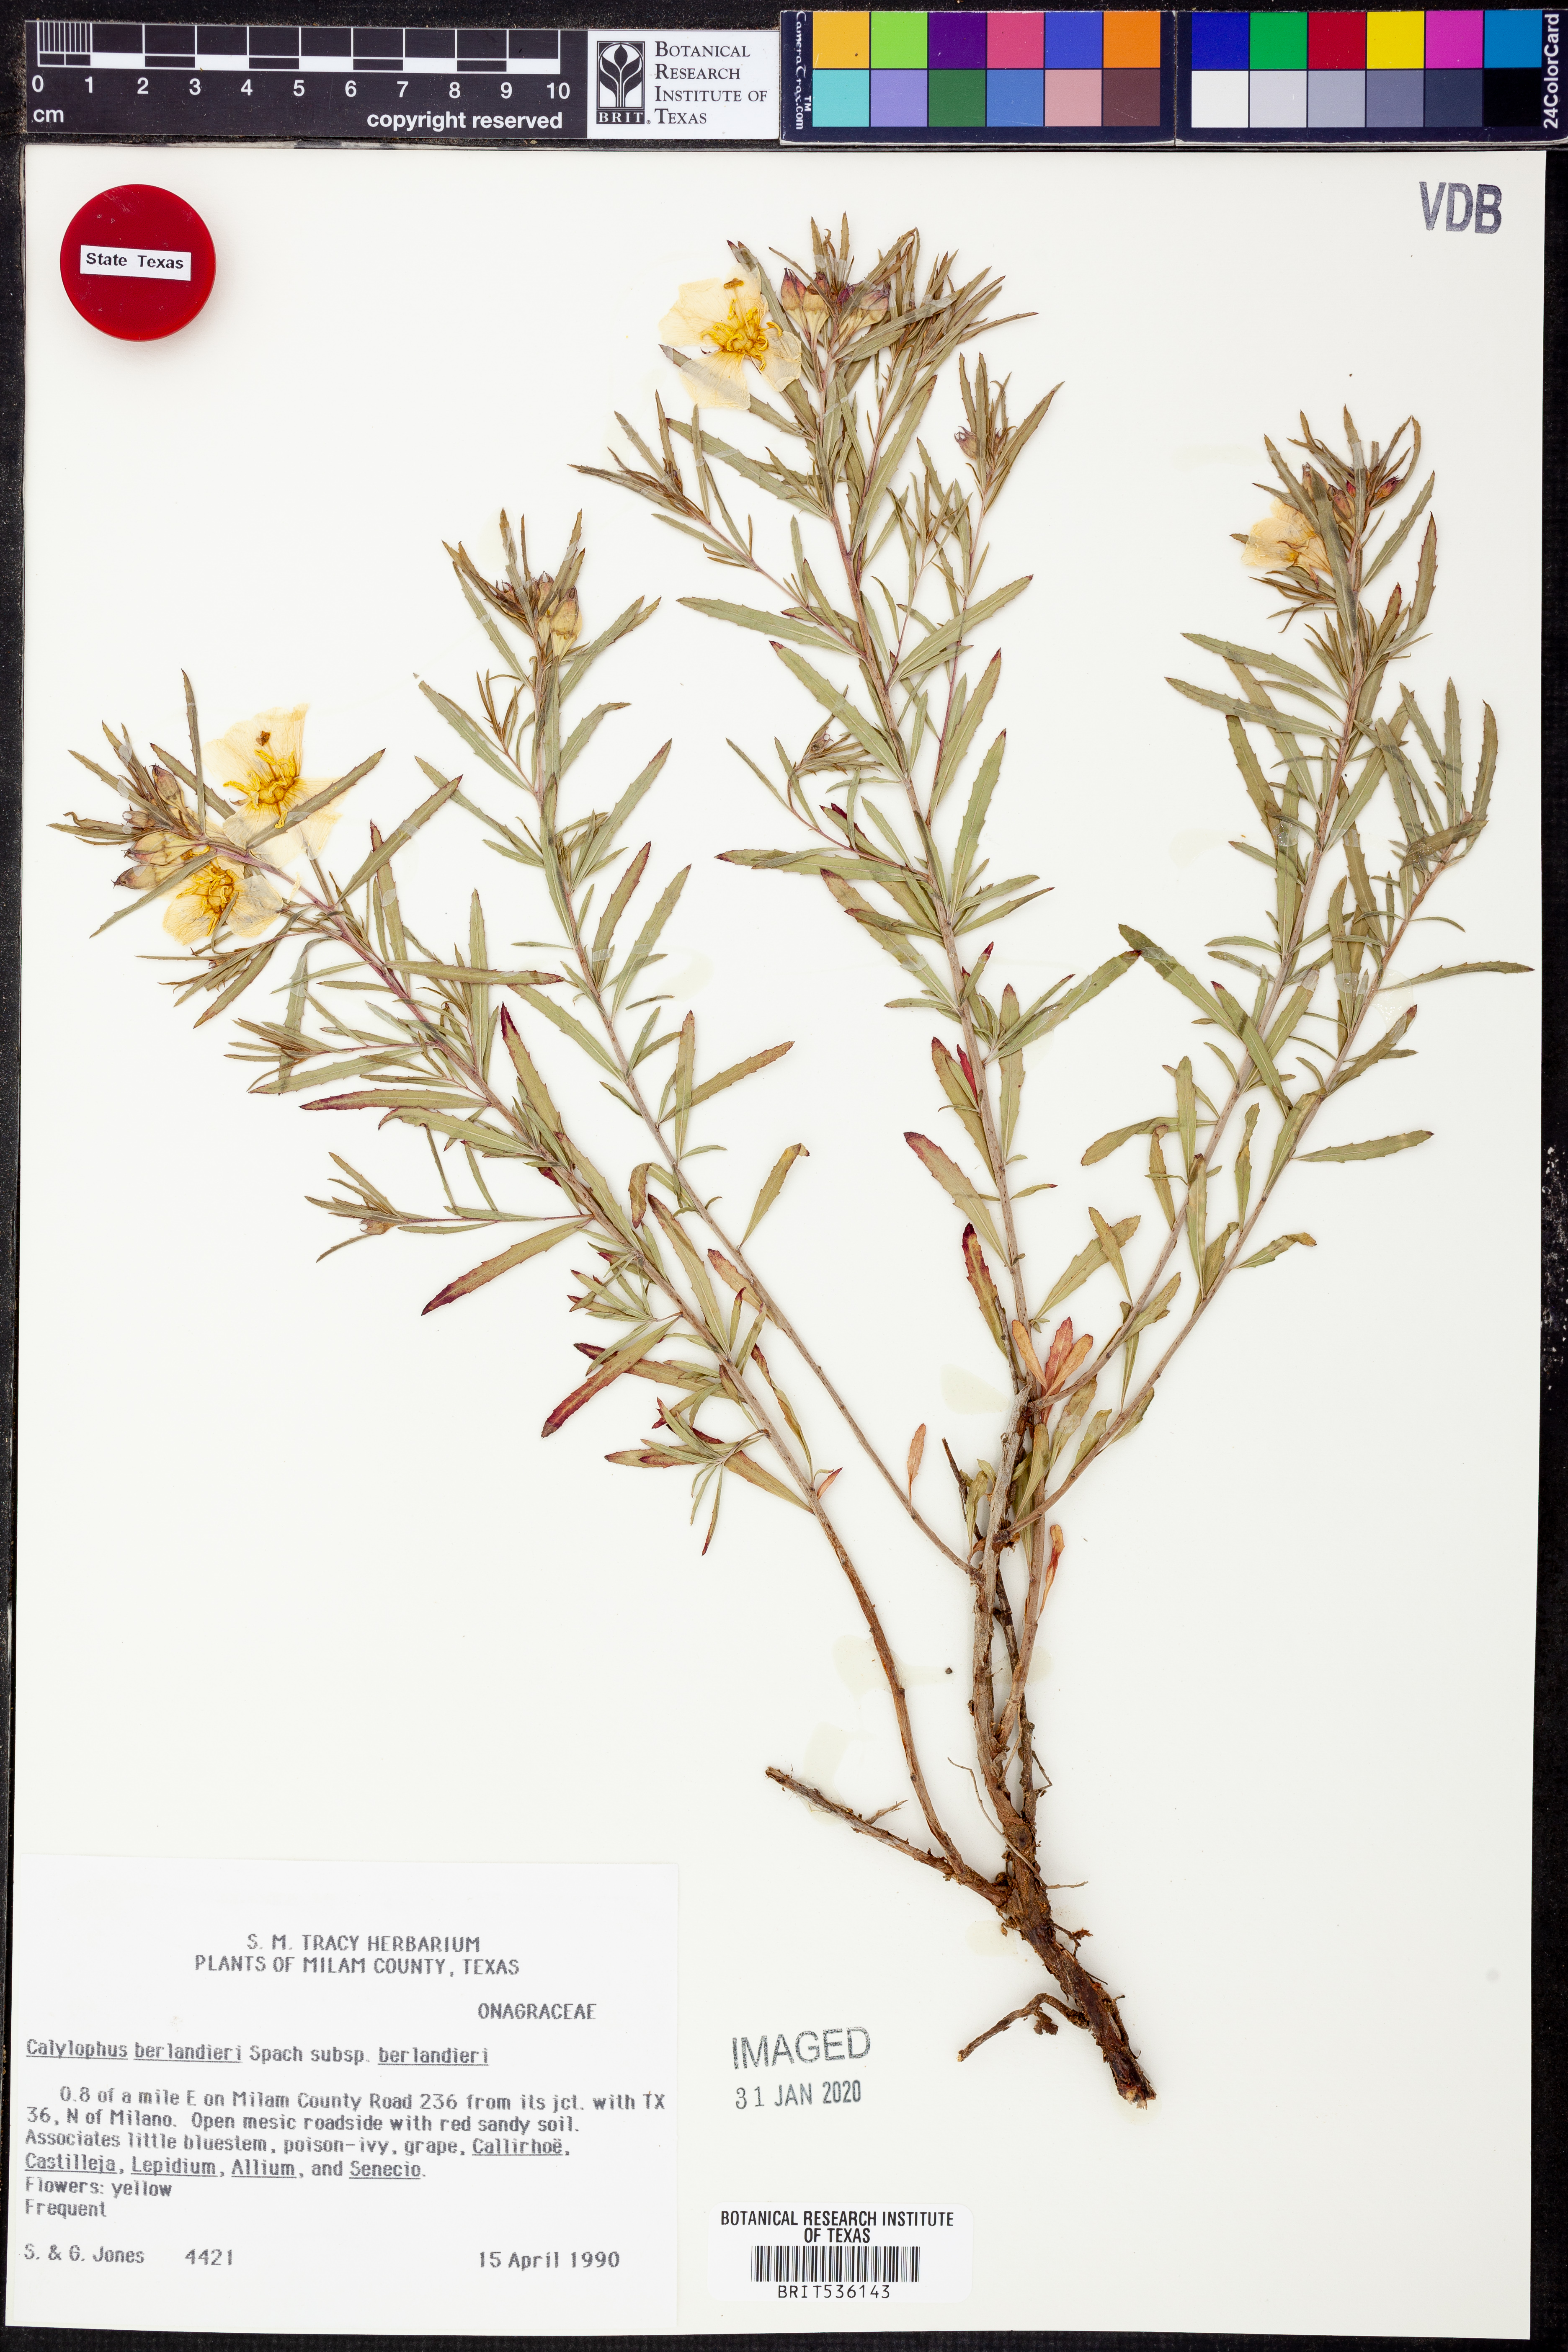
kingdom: Plantae
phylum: Tracheophyta
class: Magnoliopsida
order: Myrtales
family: Onagraceae
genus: Oenothera
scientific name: Oenothera capillifolia
